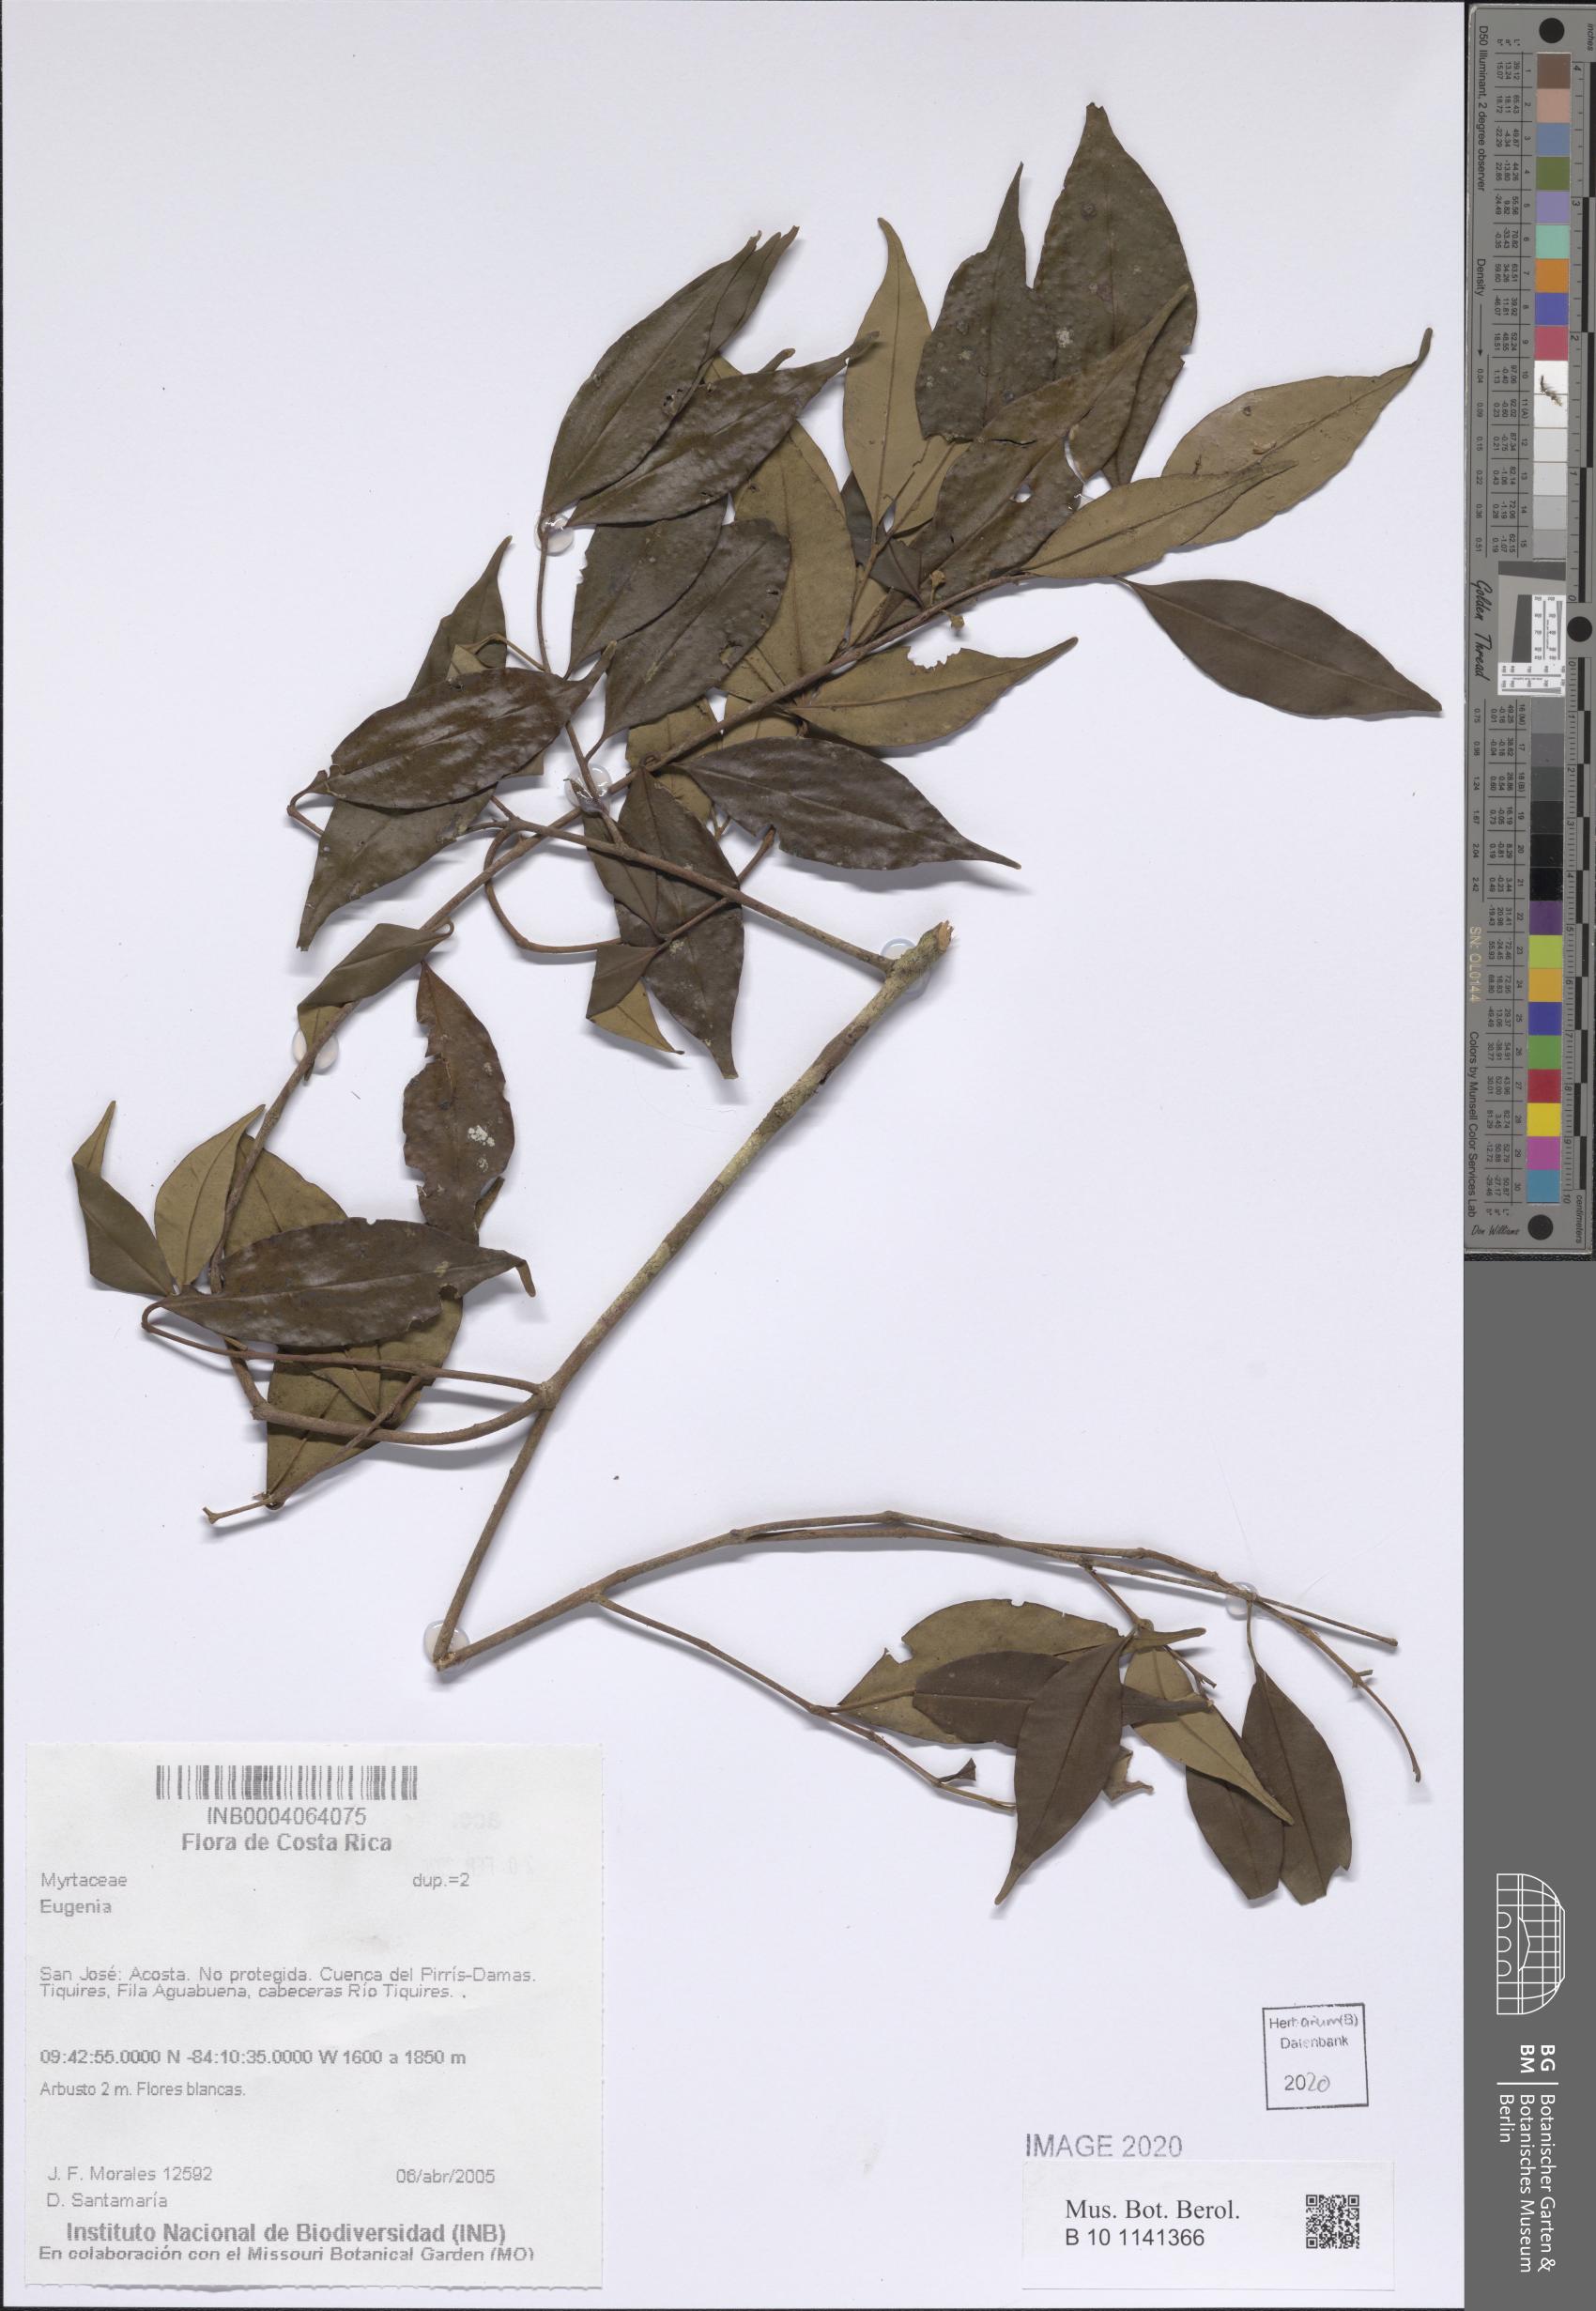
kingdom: Plantae
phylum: Tracheophyta
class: Magnoliopsida
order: Myrtales
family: Myrtaceae
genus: Eugenia
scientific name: Eugenia
